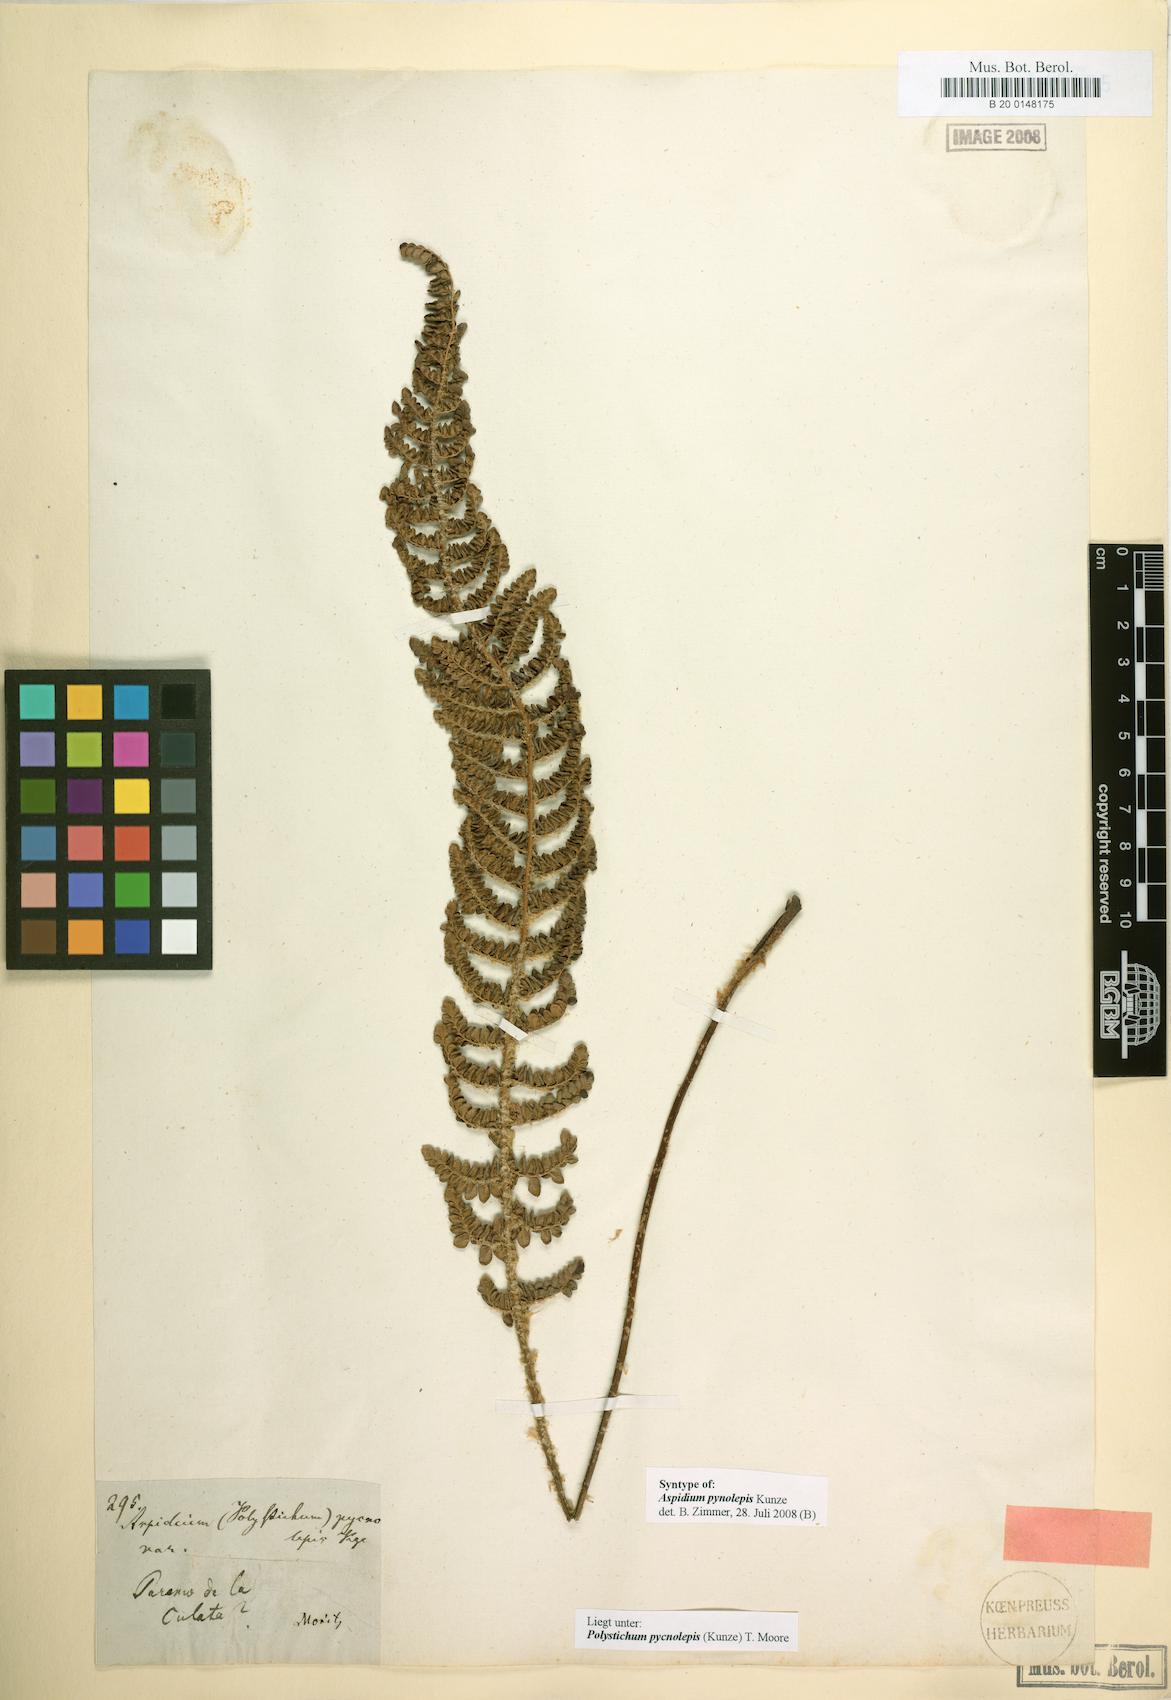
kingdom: Plantae
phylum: Tracheophyta
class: Polypodiopsida
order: Polypodiales
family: Dryopteridaceae
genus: Polystichum
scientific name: Polystichum pycnolepis
